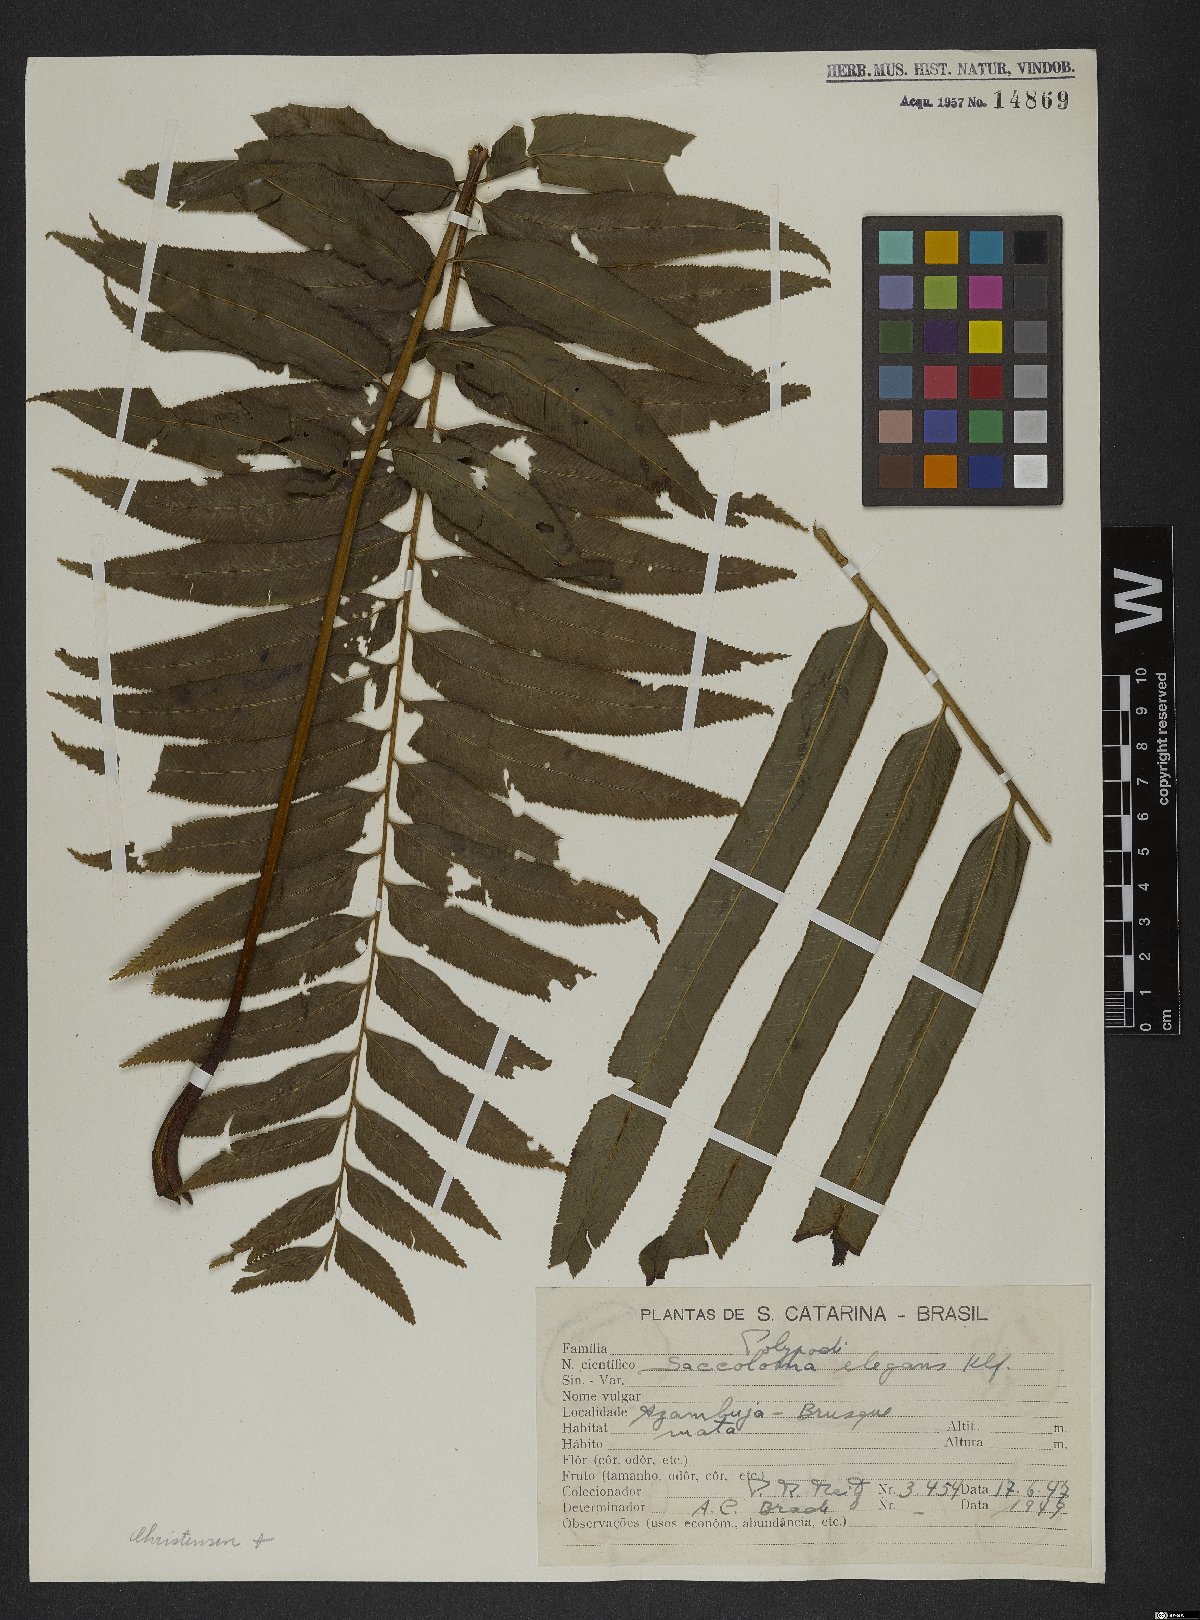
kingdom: Plantae
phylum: Tracheophyta
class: Polypodiopsida
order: Polypodiales
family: Saccolomataceae
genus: Saccoloma
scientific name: Saccoloma elegans
